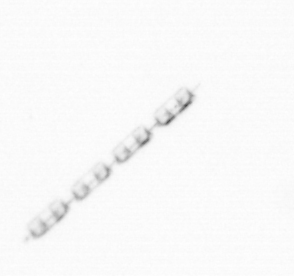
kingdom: Chromista
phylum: Ochrophyta
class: Bacillariophyceae
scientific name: Bacillariophyceae
